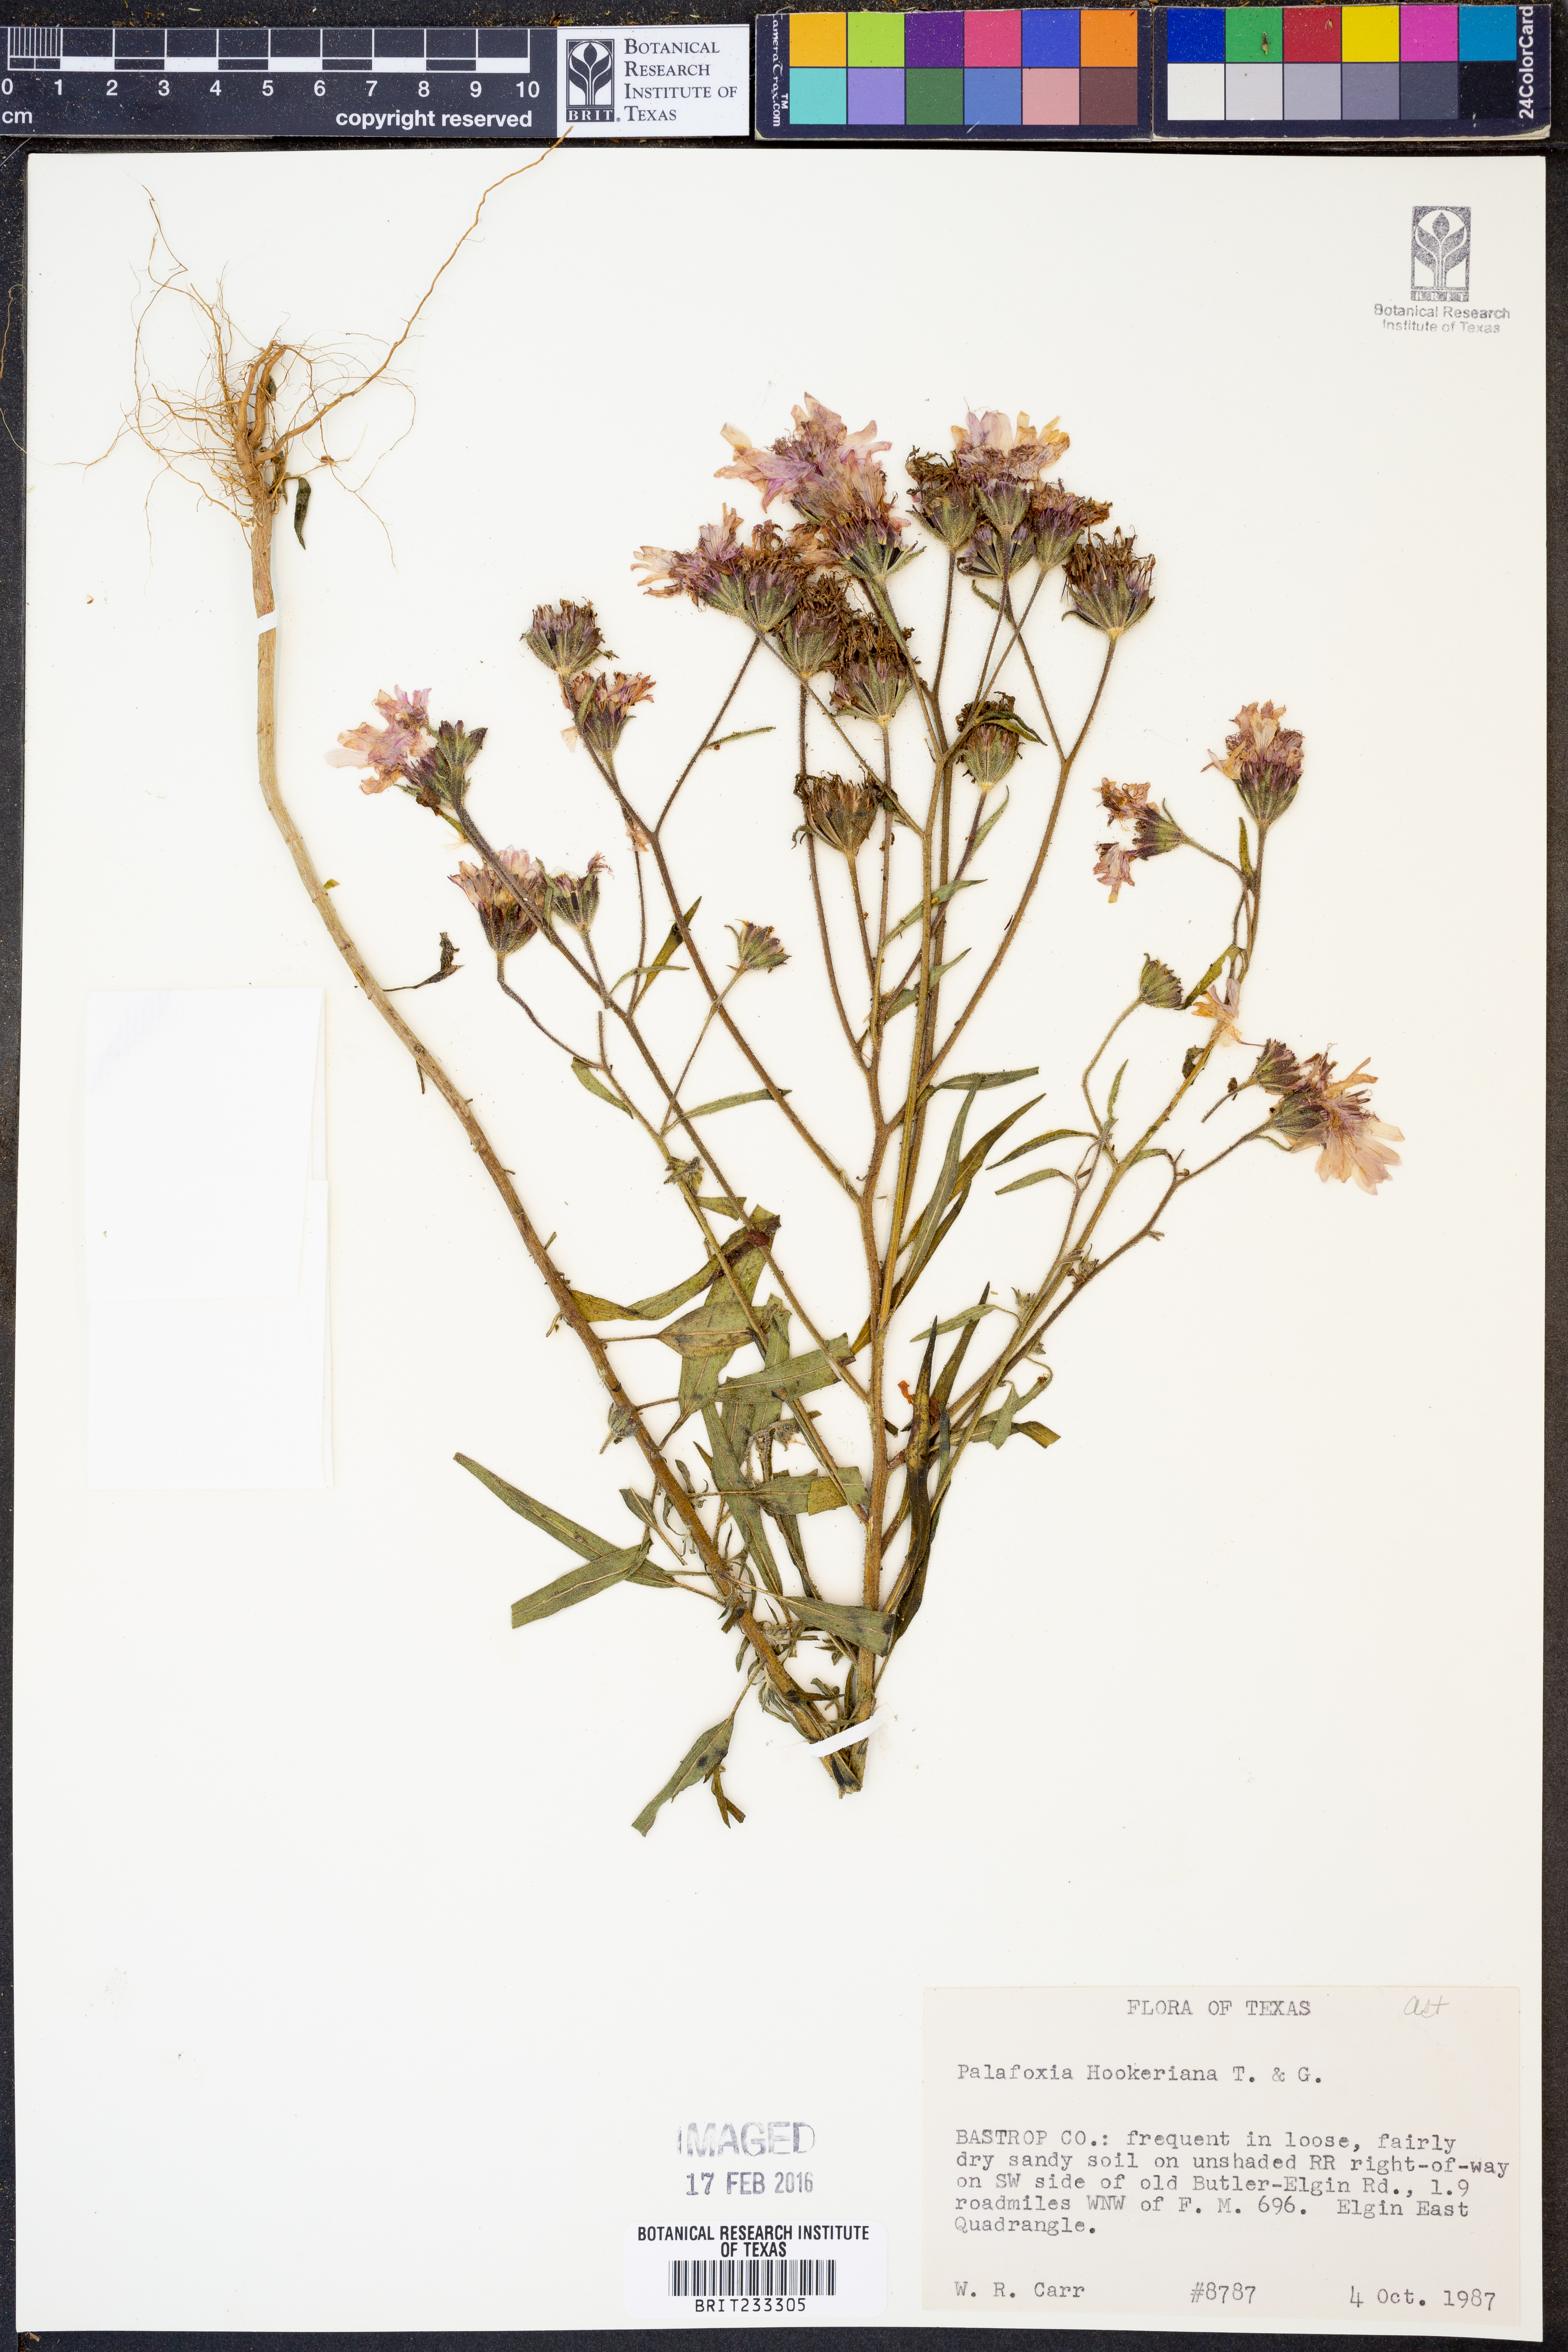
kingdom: Plantae
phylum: Tracheophyta
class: Magnoliopsida
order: Asterales
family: Asteraceae
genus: Palafoxia
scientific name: Palafoxia hookeriana
